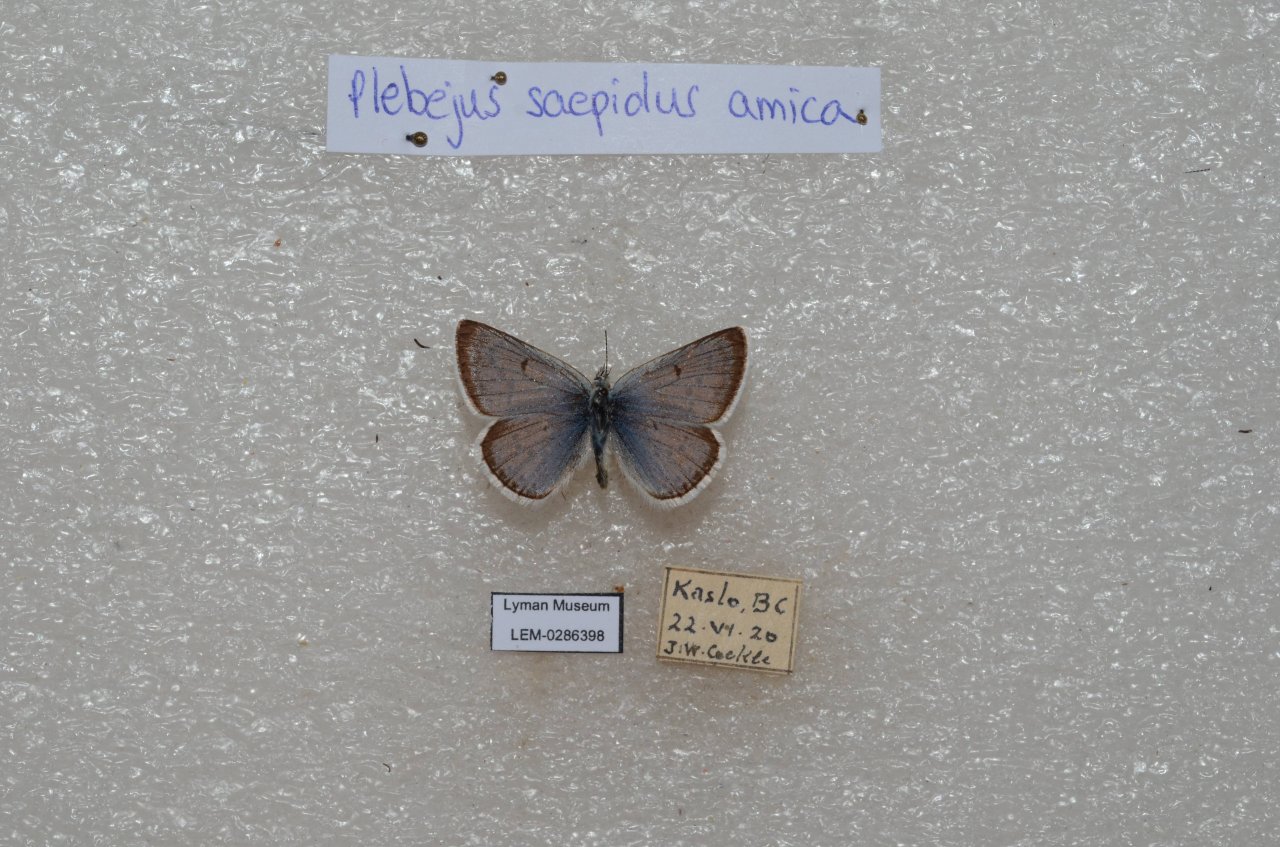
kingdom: Animalia
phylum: Arthropoda
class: Insecta
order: Lepidoptera
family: Lycaenidae
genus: Plebejus
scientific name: Plebejus saepiolus
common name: Greenish Blue
